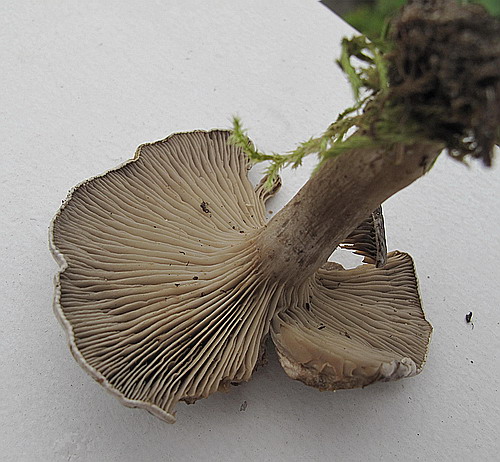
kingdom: Fungi
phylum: Basidiomycota
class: Agaricomycetes
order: Agaricales
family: Tricholomataceae
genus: Lulesia
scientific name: Lulesia
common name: sortnende troldhat
